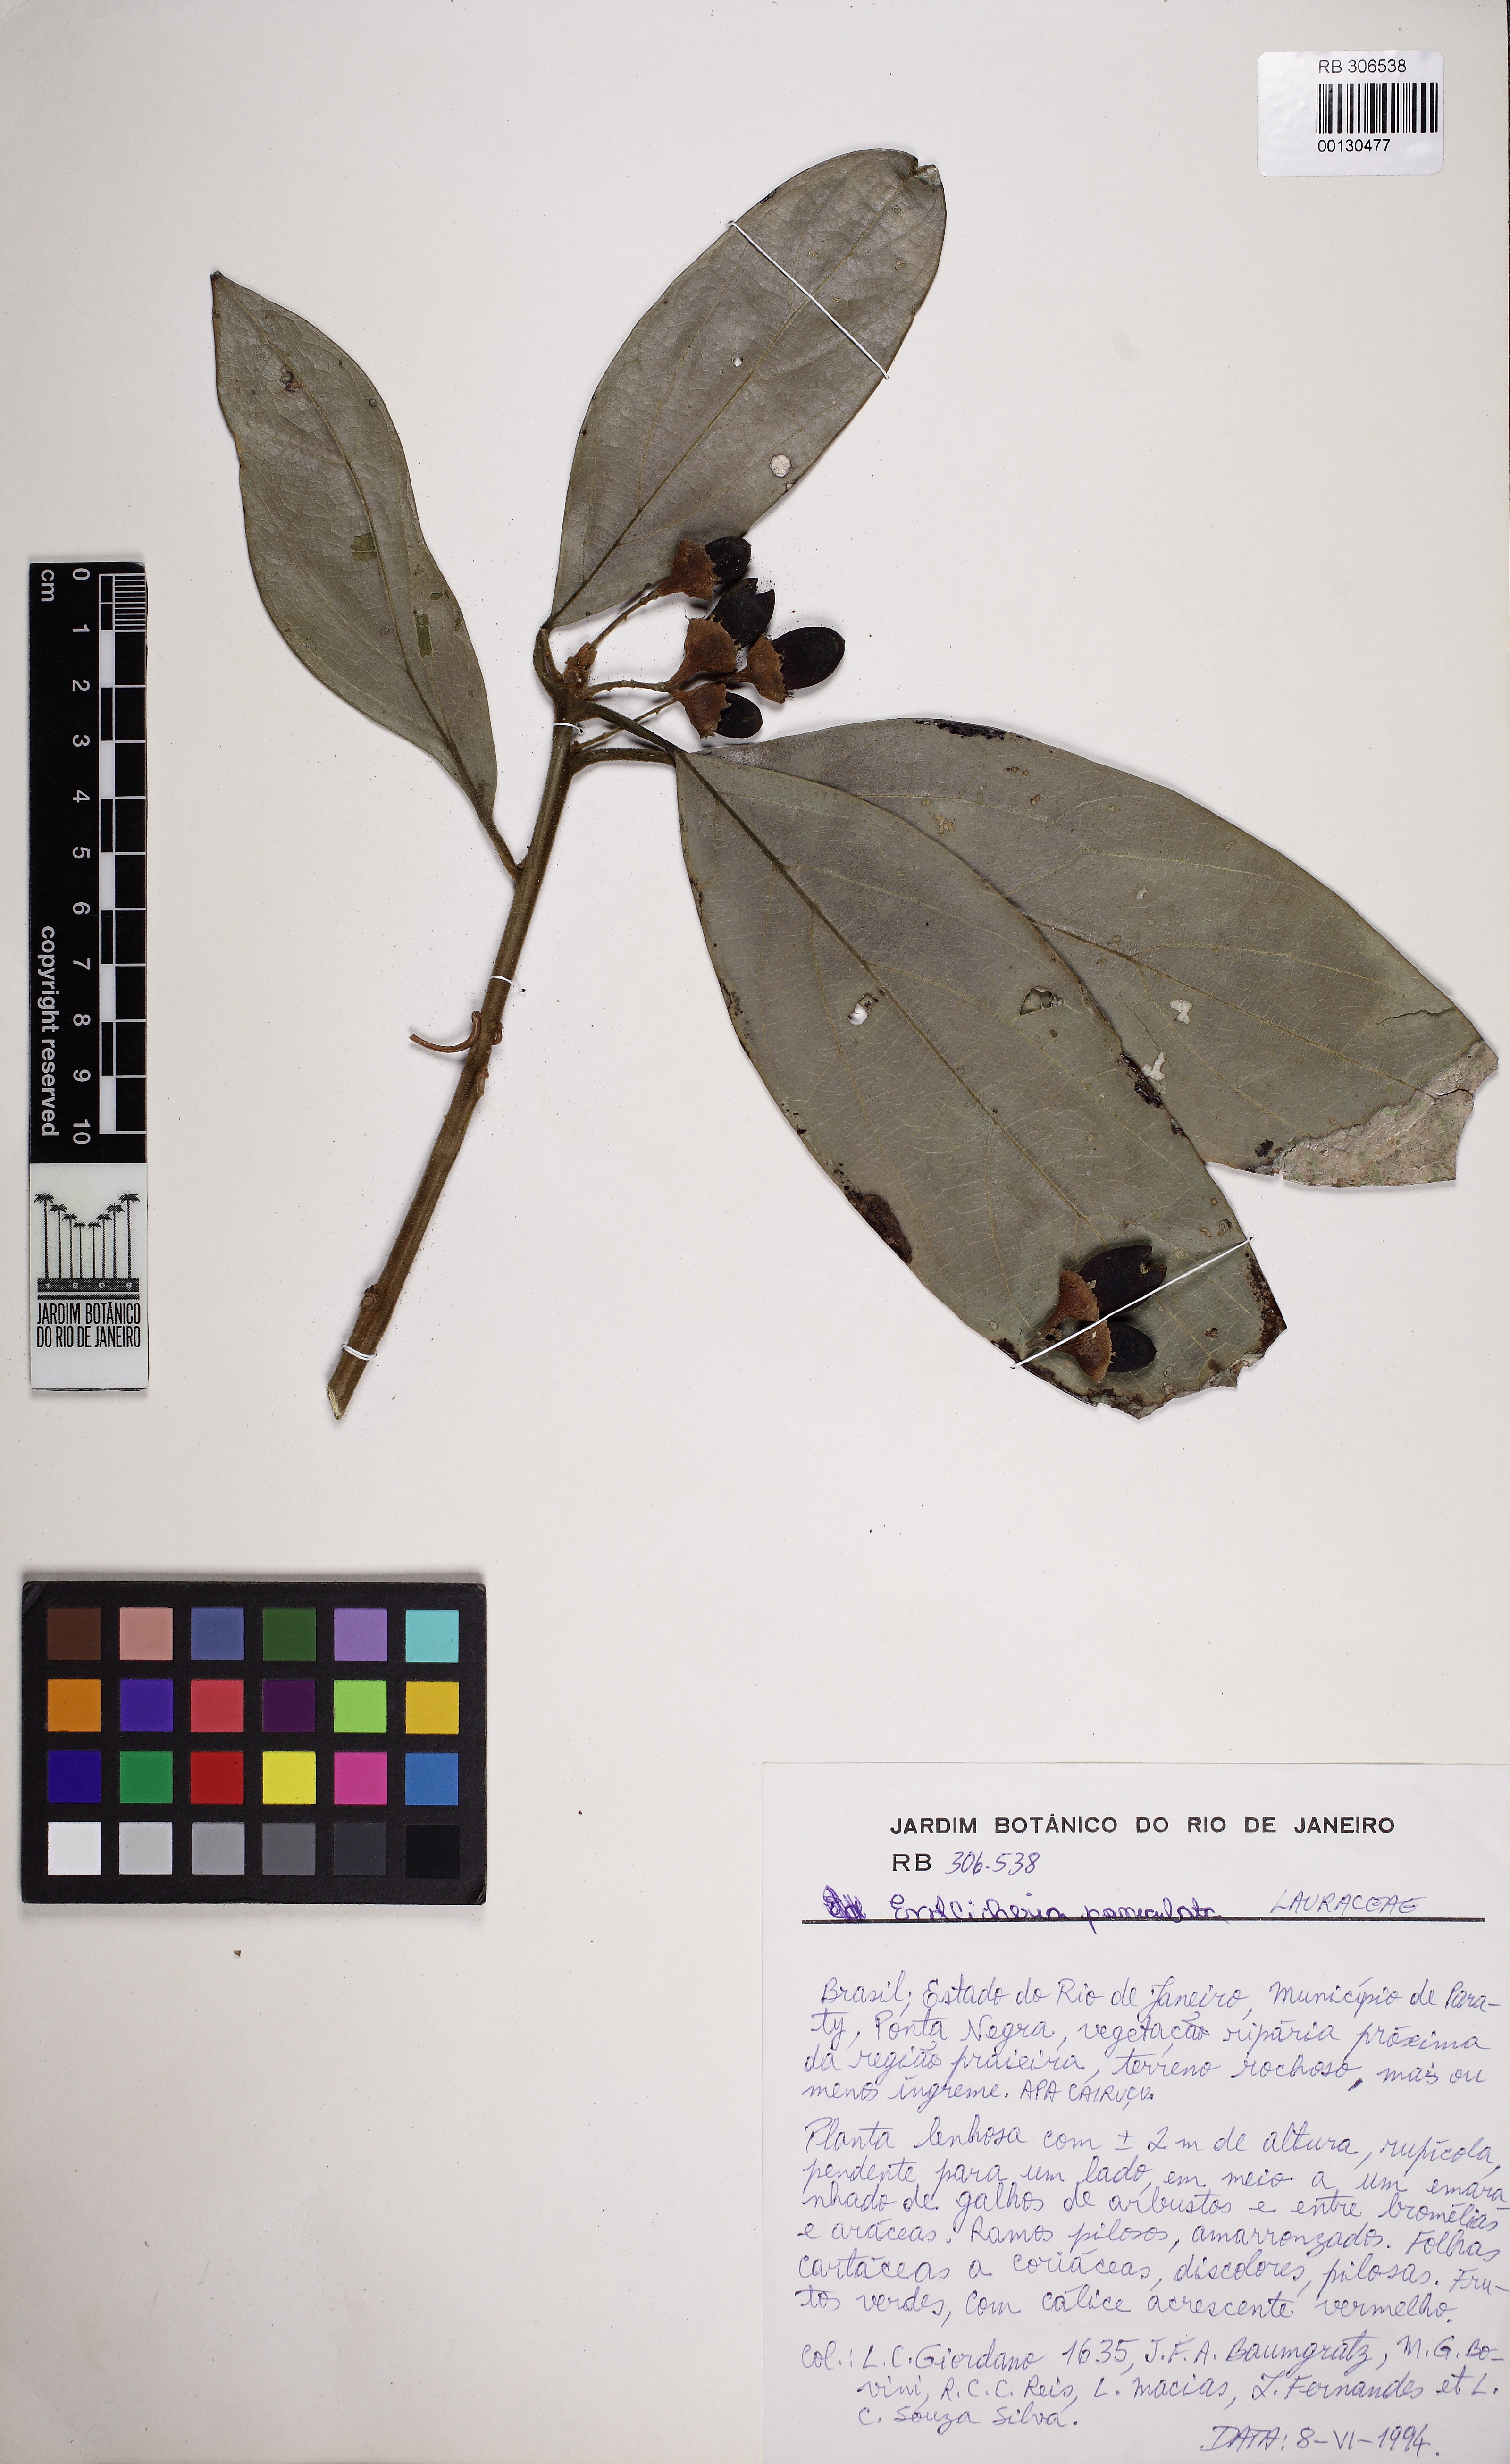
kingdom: Plantae
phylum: Tracheophyta
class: Magnoliopsida
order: Laurales
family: Lauraceae
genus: Endlicheria
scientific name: Endlicheria paniculata
